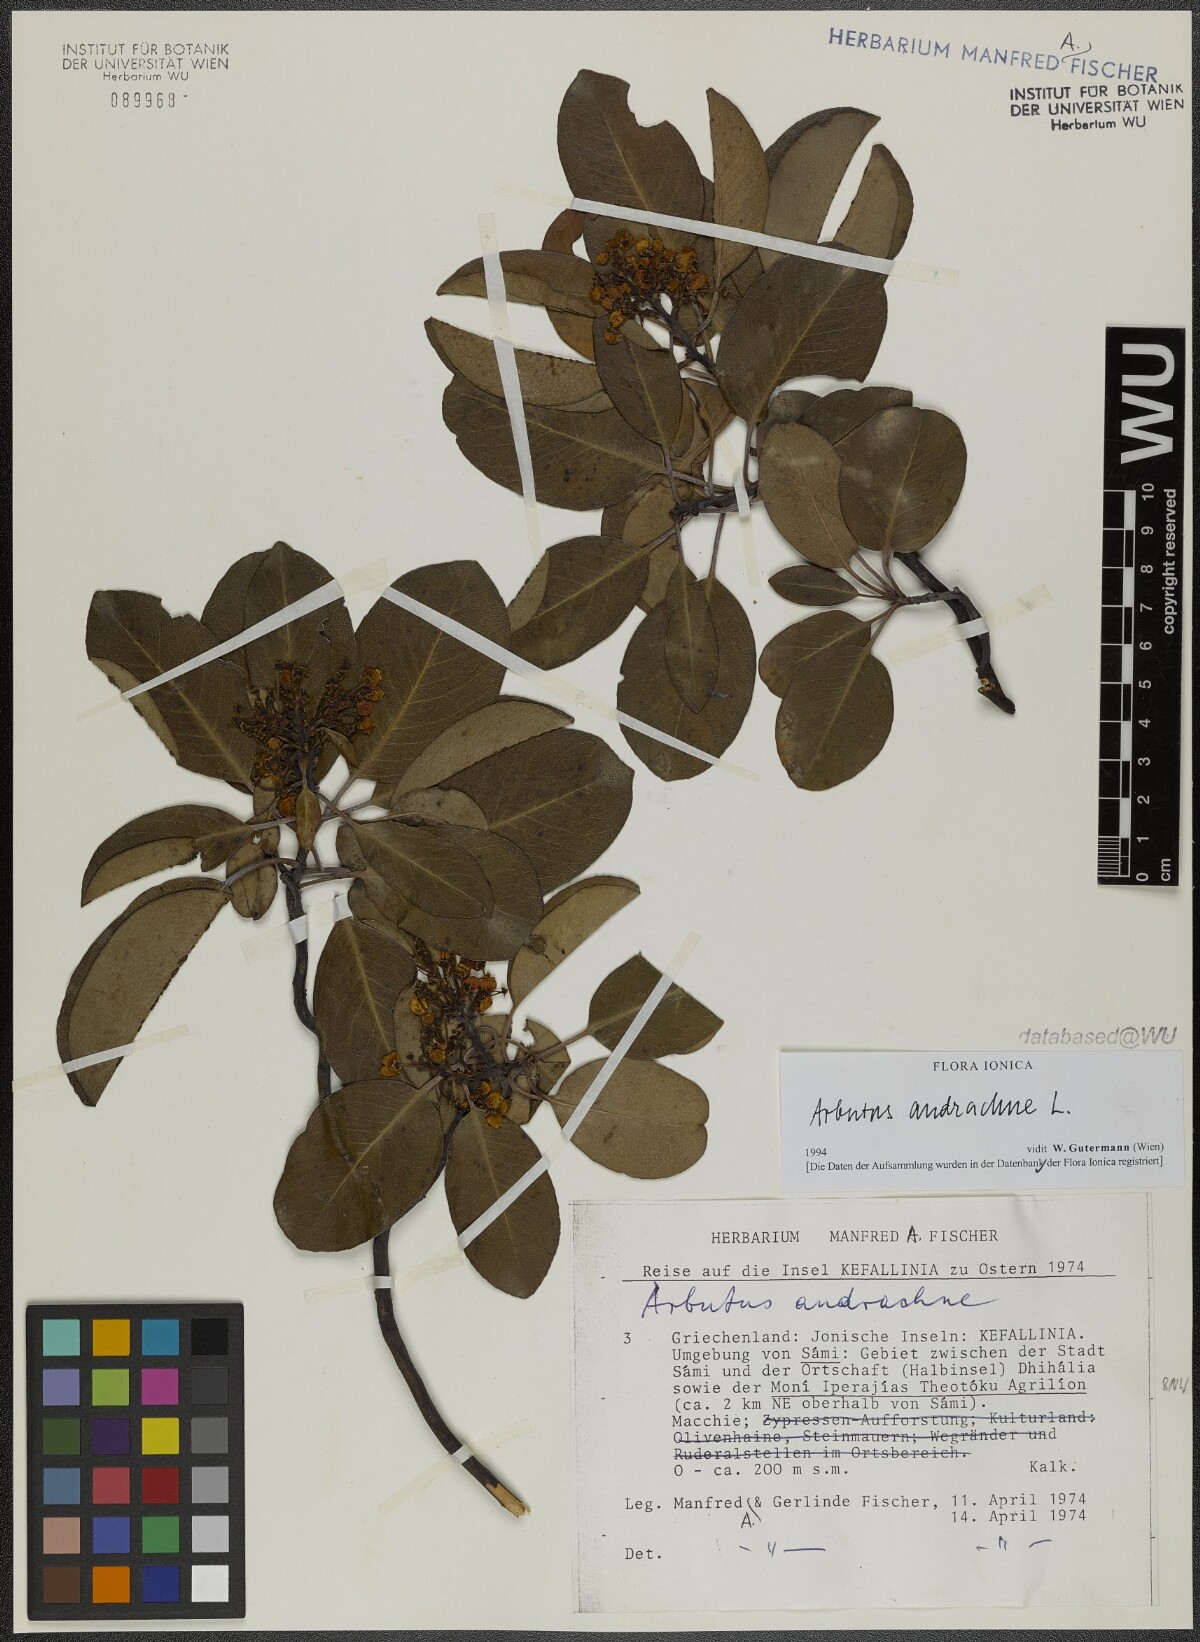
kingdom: Plantae
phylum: Tracheophyta
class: Magnoliopsida
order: Ericales
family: Ericaceae
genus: Arbutus
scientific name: Arbutus andrachne
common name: Greek strawberry tree
